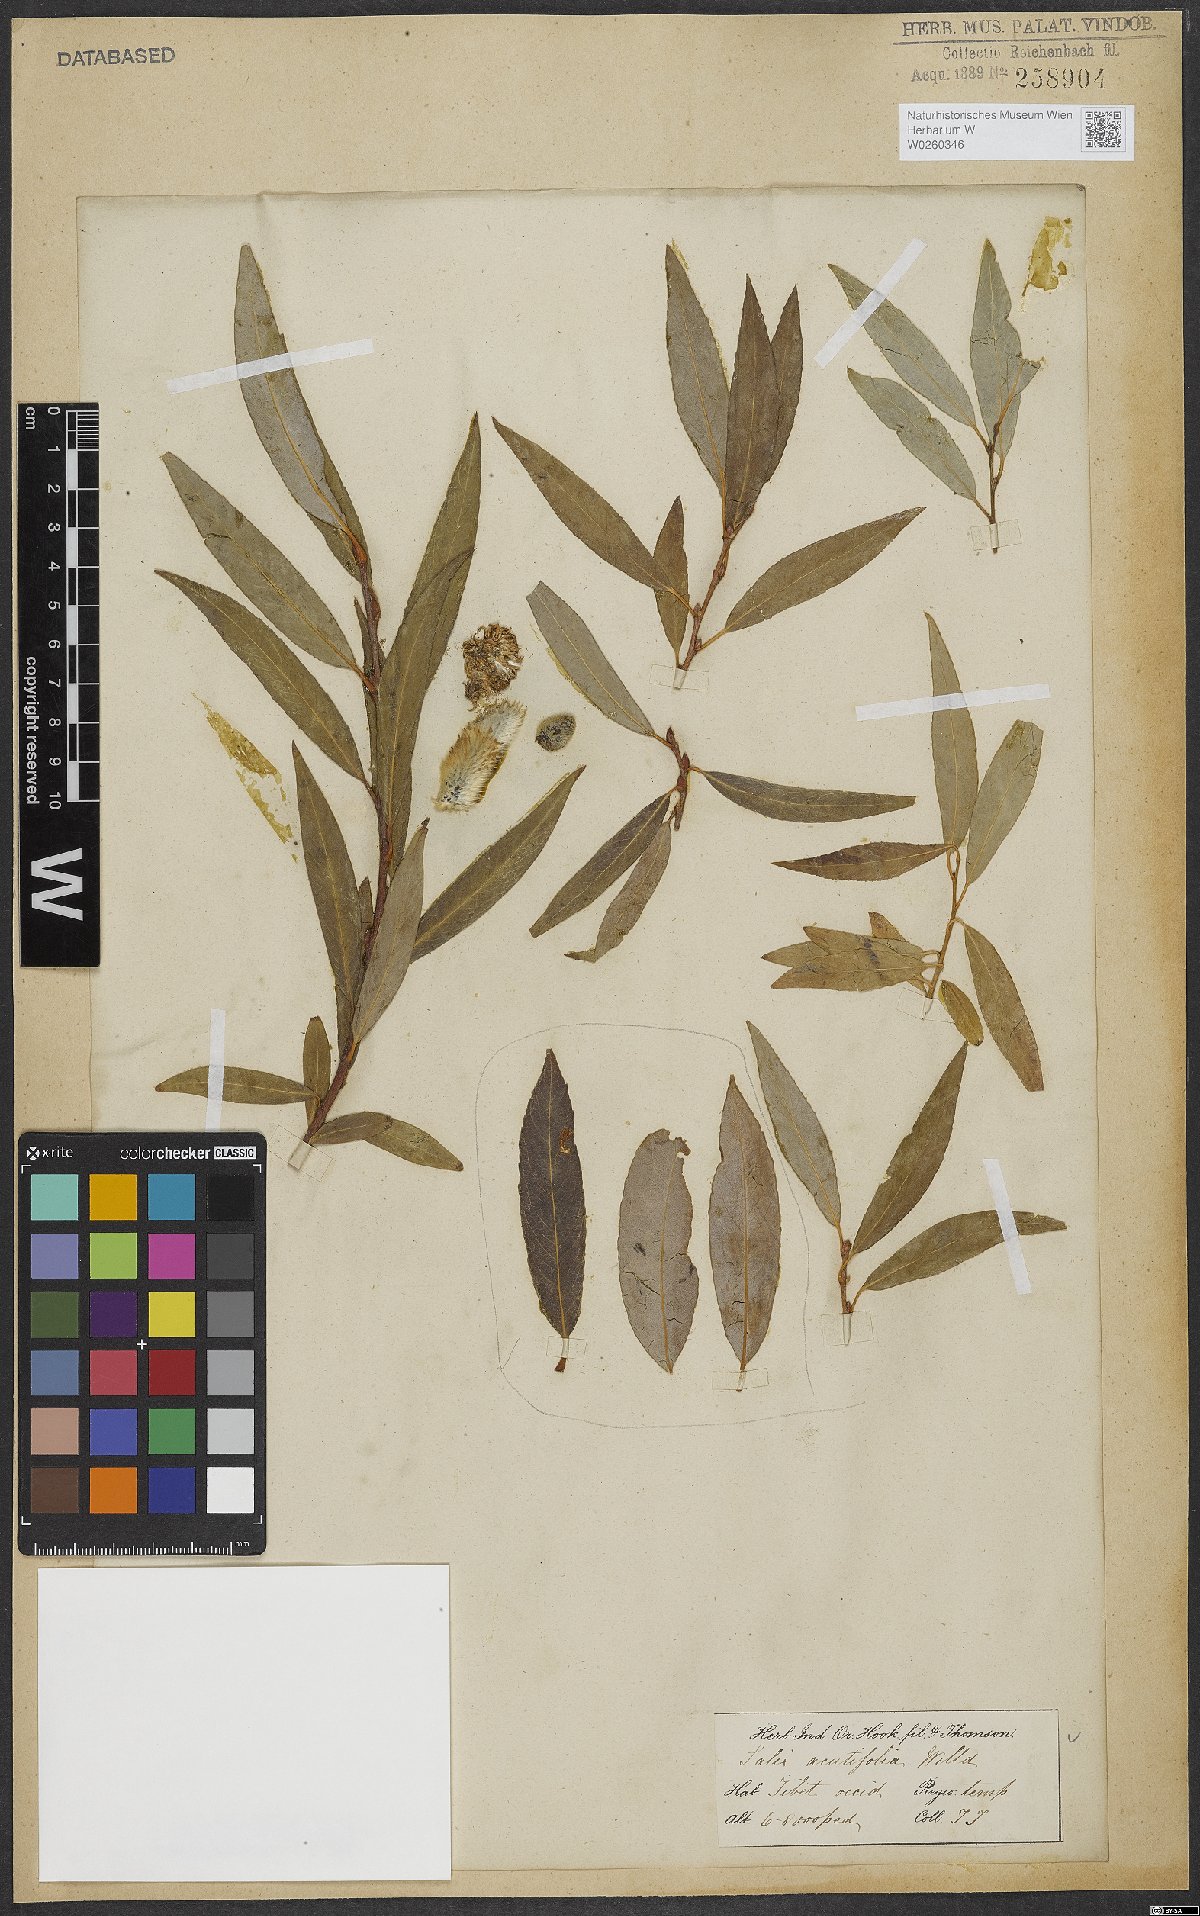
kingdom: Plantae
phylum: Tracheophyta
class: Magnoliopsida
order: Malpighiales
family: Salicaceae
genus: Salix
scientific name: Salix acutifolia
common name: Siberian violet-willow
